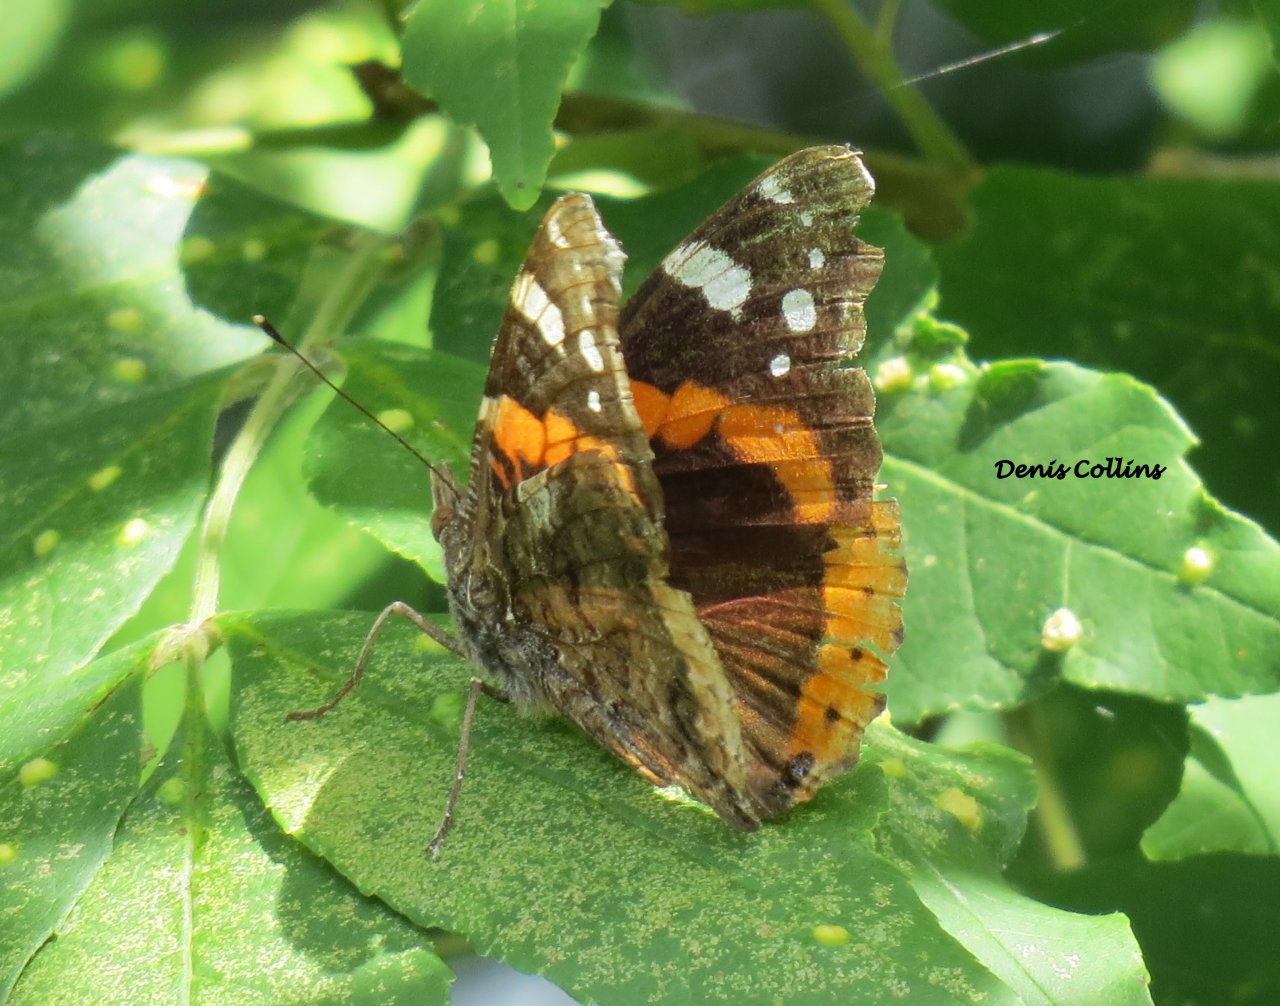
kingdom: Animalia
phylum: Arthropoda
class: Insecta
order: Lepidoptera
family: Nymphalidae
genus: Vanessa
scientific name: Vanessa atalanta
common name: Red Admiral
